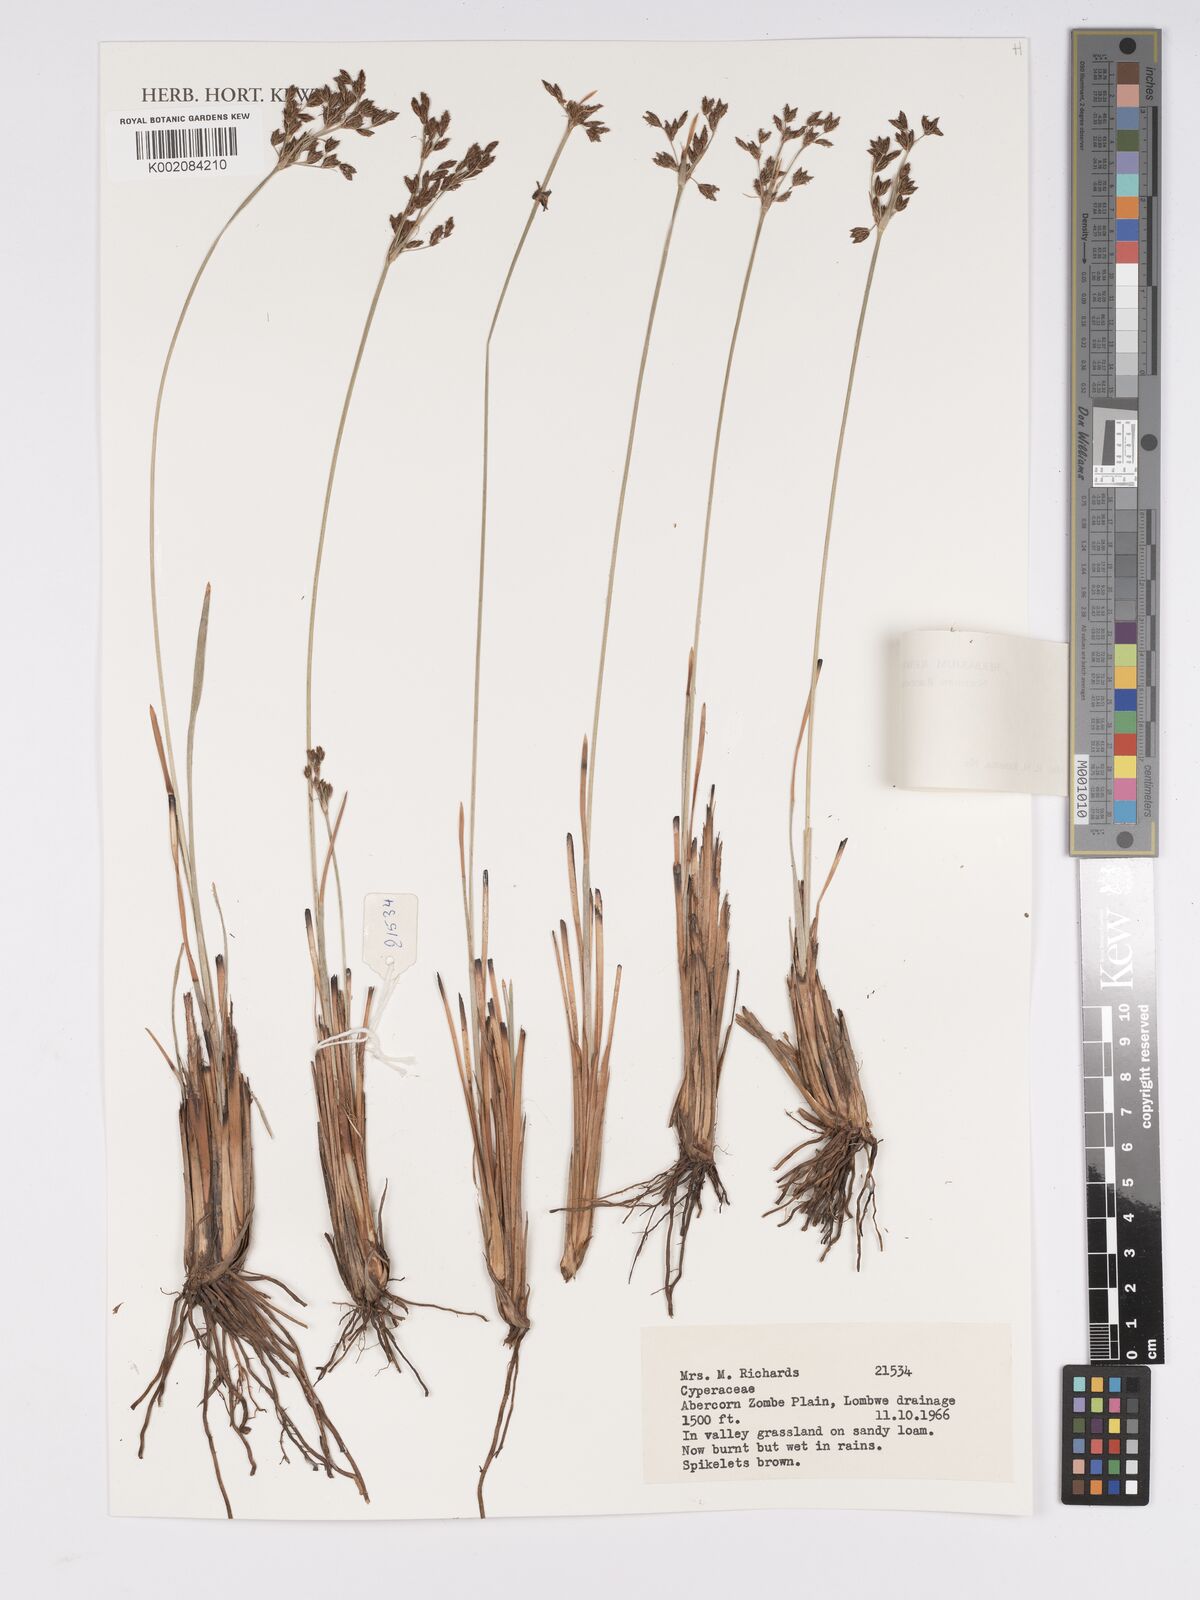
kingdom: Plantae
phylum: Tracheophyta
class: Liliopsida
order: Poales
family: Cyperaceae
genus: Bulbostylis
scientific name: Bulbostylis
